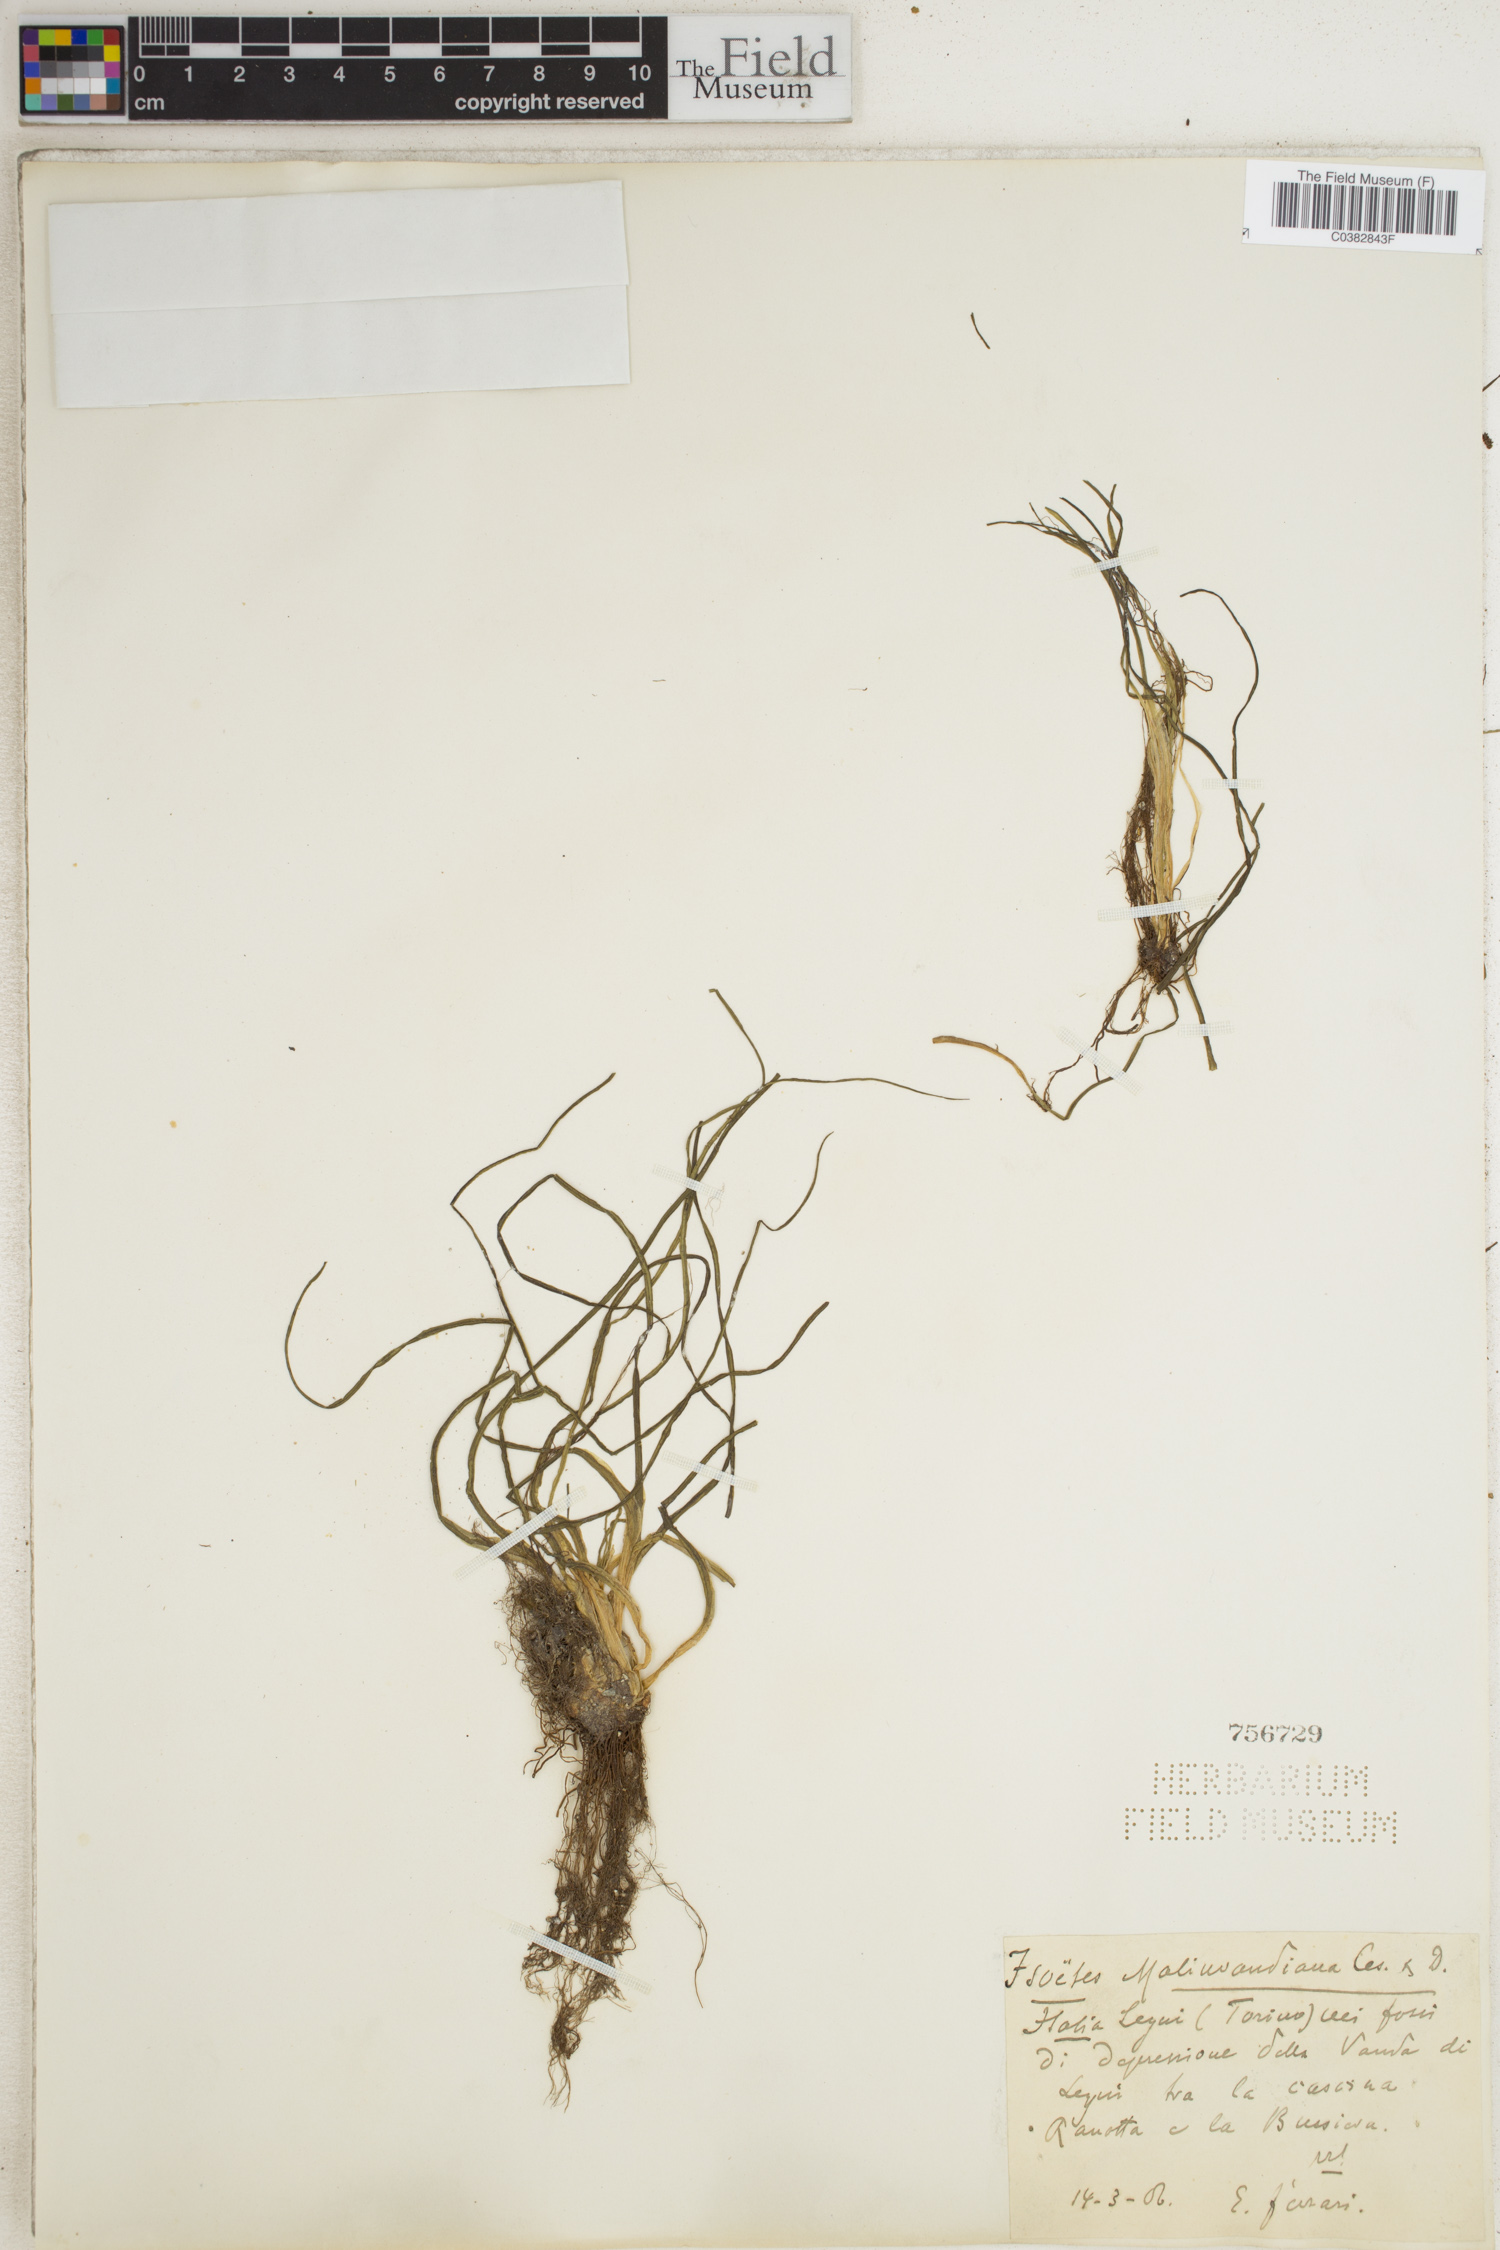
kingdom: Plantae
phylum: Tracheophyta
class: Lycopodiopsida
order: Isoetales
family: Isoetaceae
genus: Isoetes
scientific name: Isoetes sahyadrii
